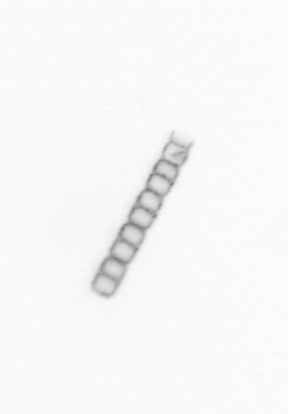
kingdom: Chromista
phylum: Ochrophyta
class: Bacillariophyceae
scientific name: Bacillariophyceae
